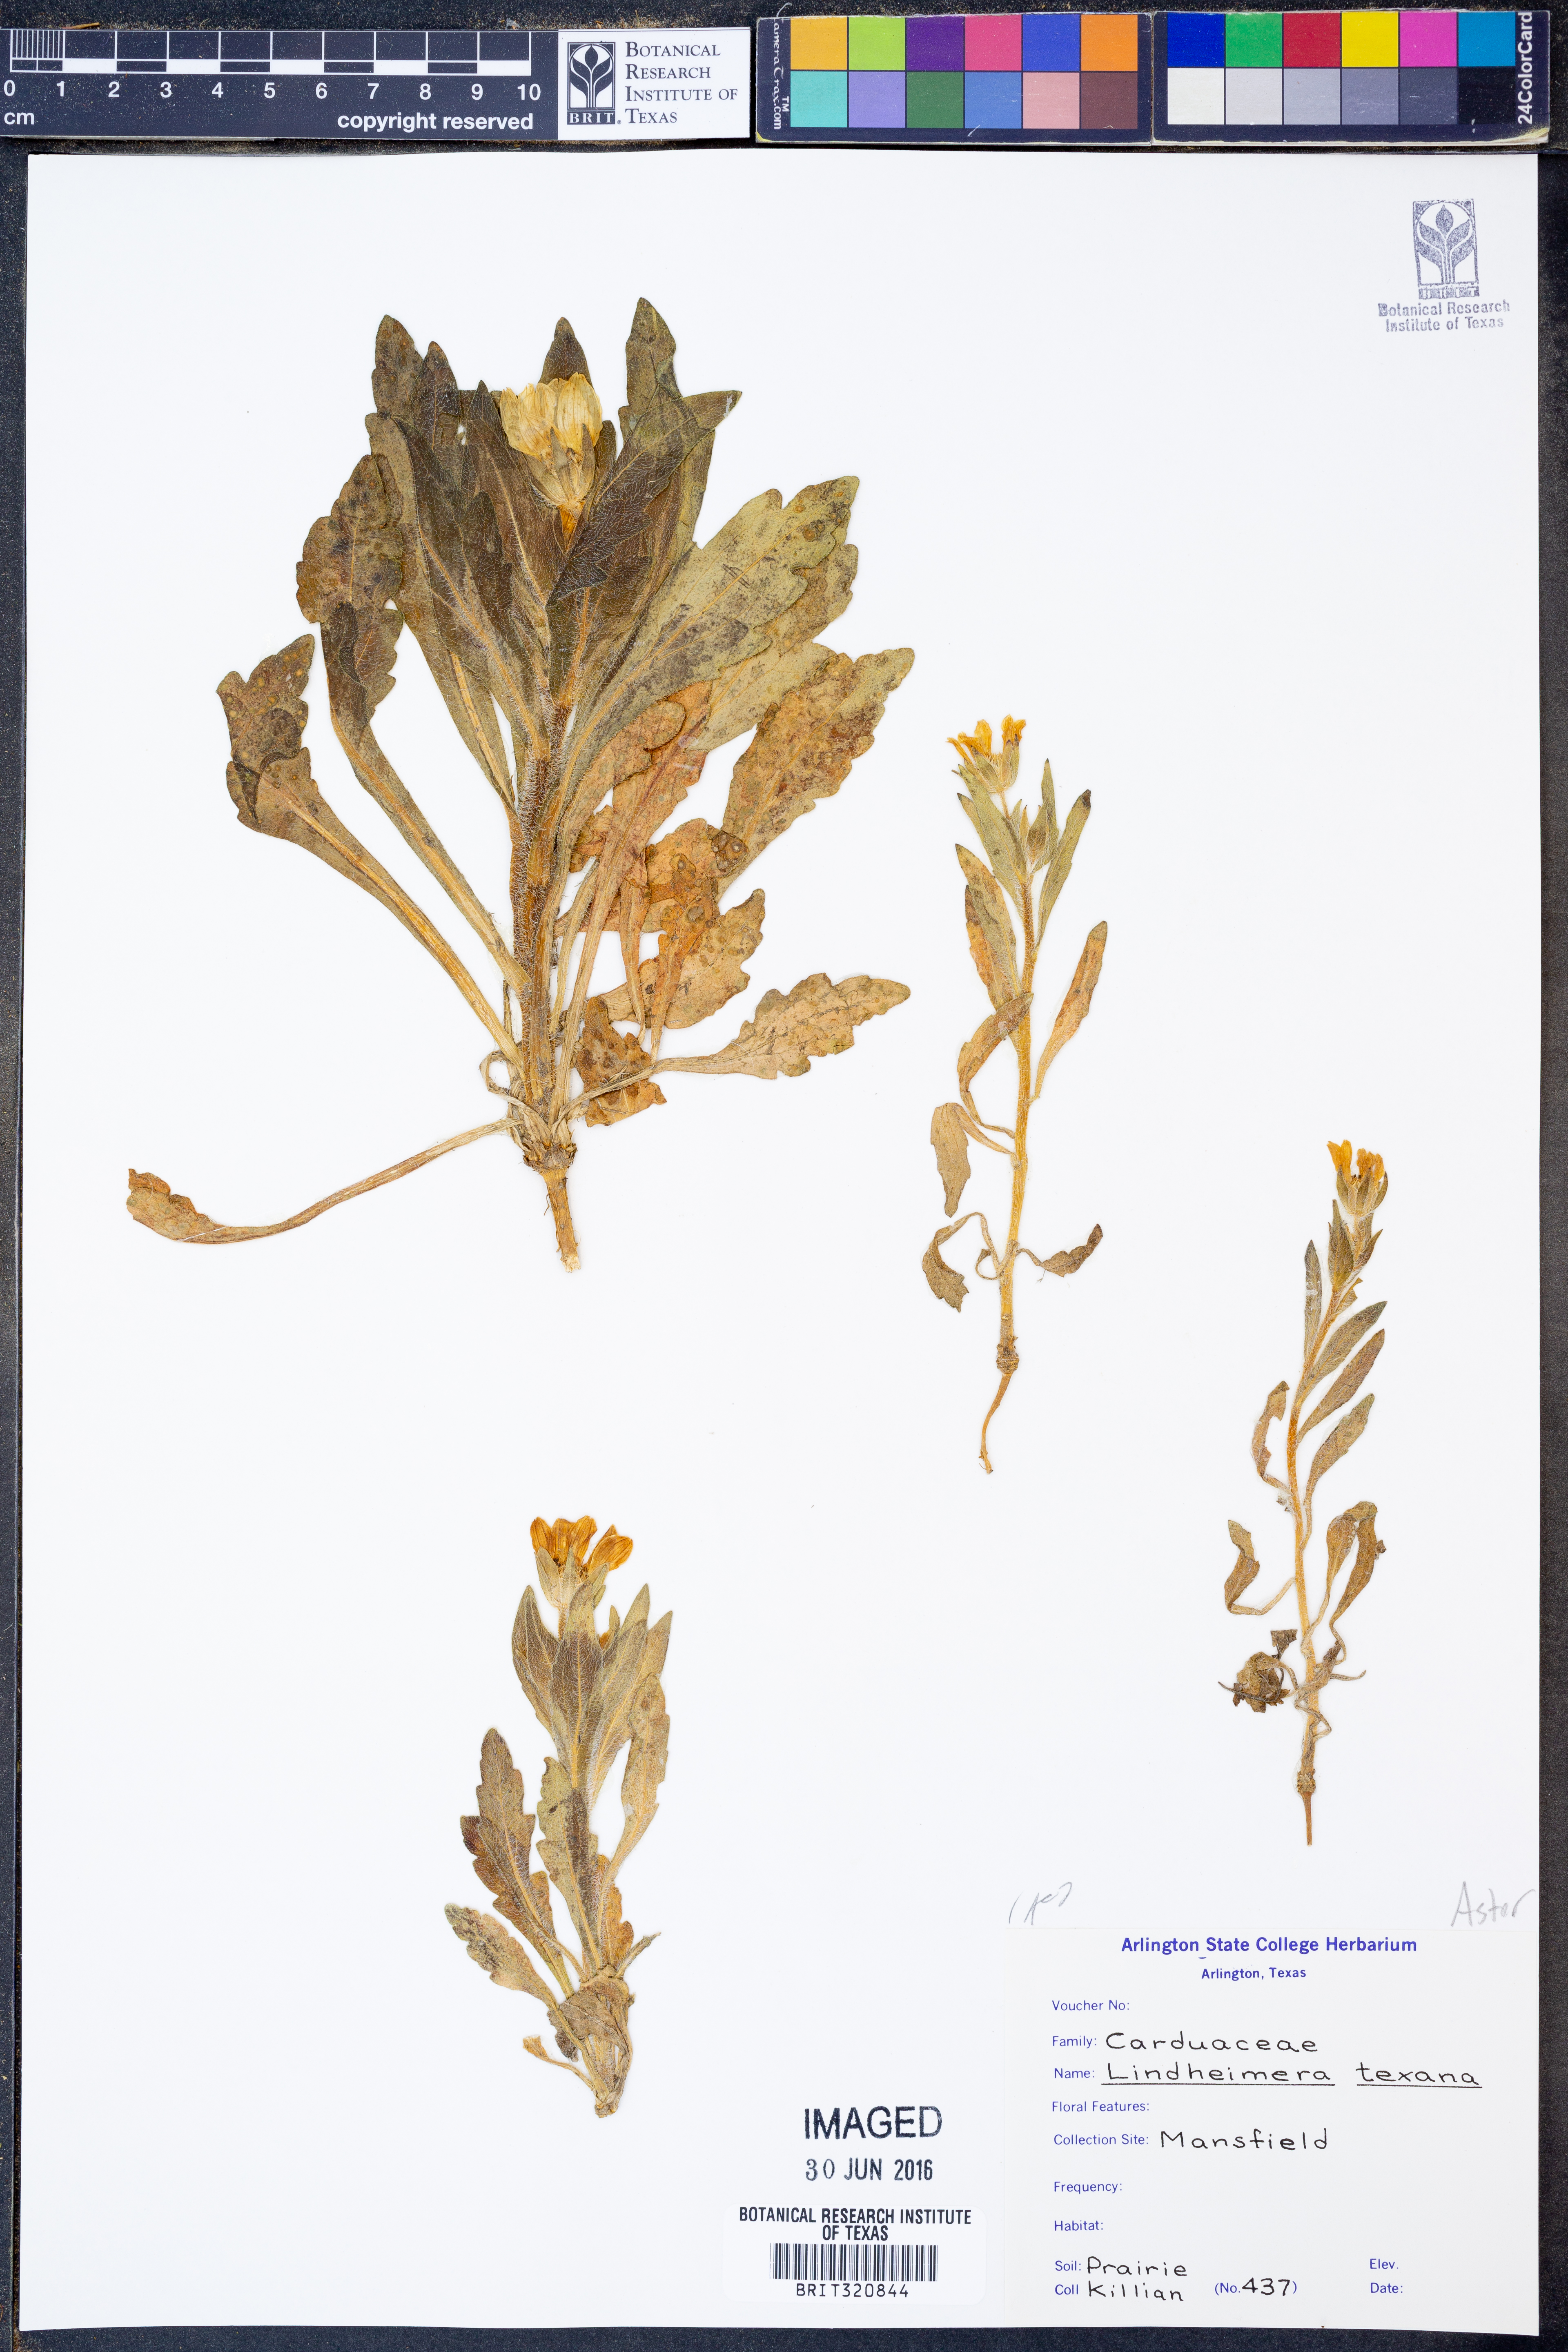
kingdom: Plantae
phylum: Tracheophyta
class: Magnoliopsida
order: Asterales
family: Asteraceae
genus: Lindheimera
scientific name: Lindheimera texana
